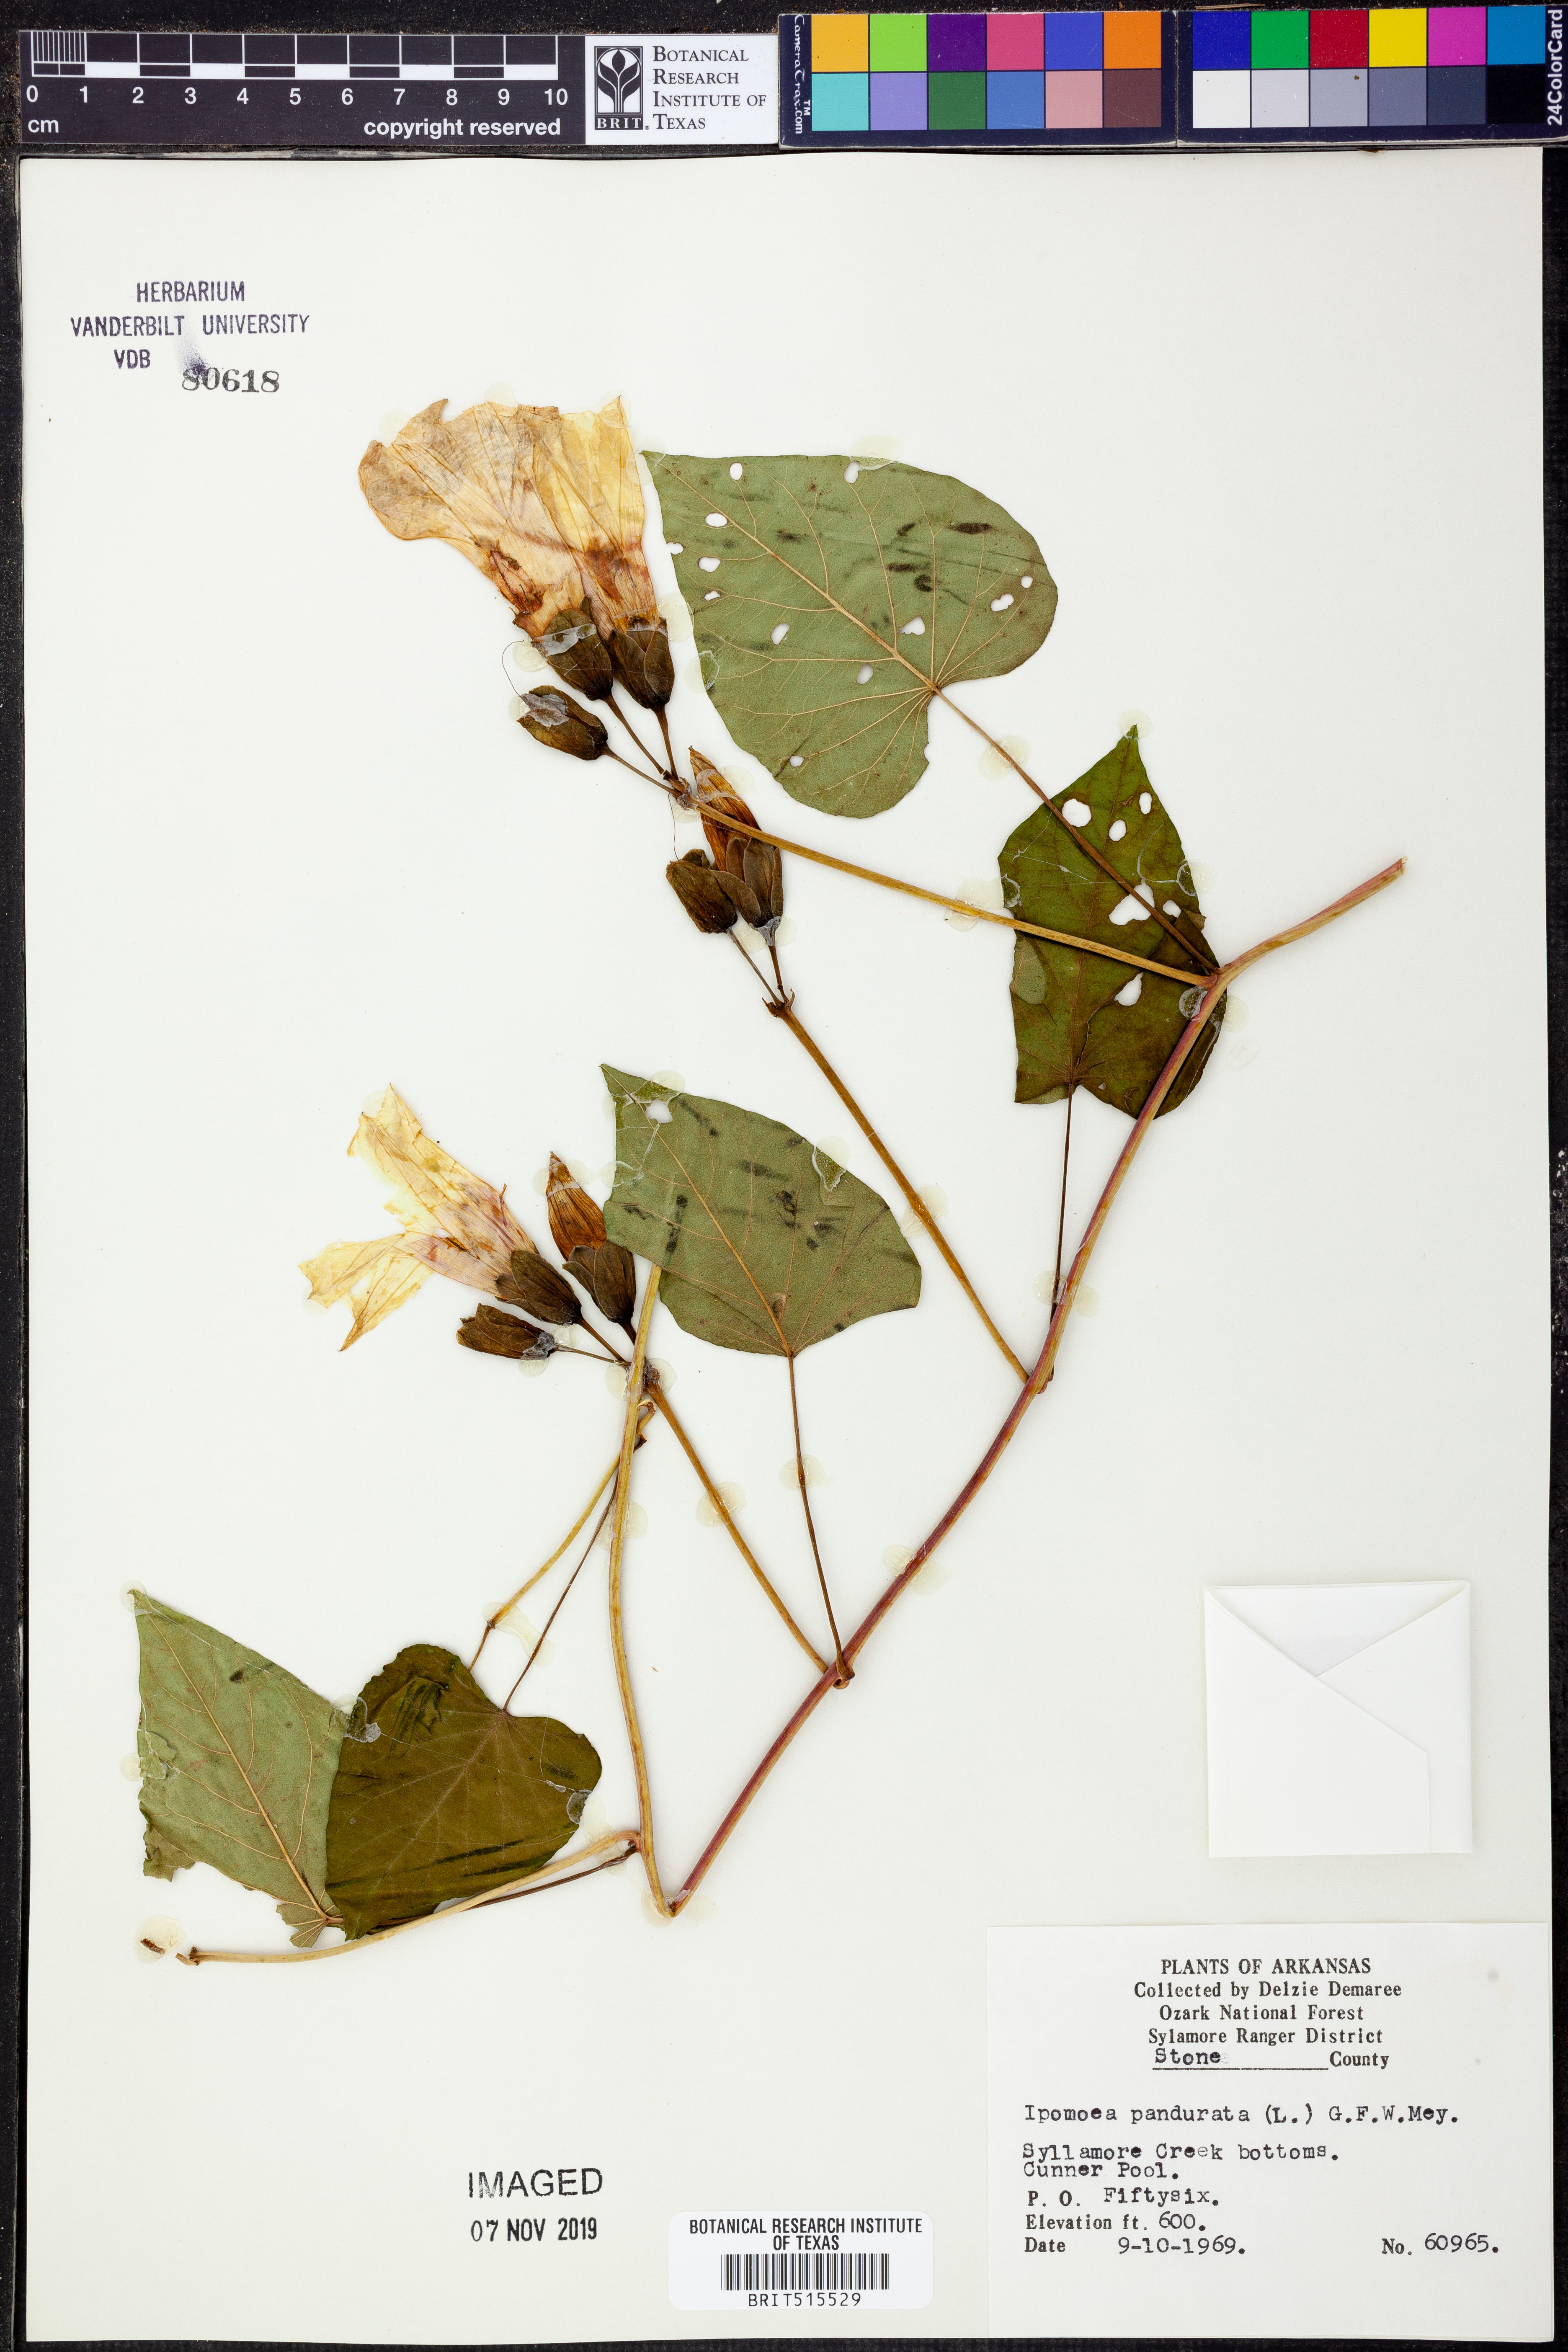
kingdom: Plantae
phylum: Tracheophyta
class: Magnoliopsida
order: Solanales
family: Convolvulaceae
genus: Ipomoea
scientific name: Ipomoea pandurata
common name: Man-of-the-earth
